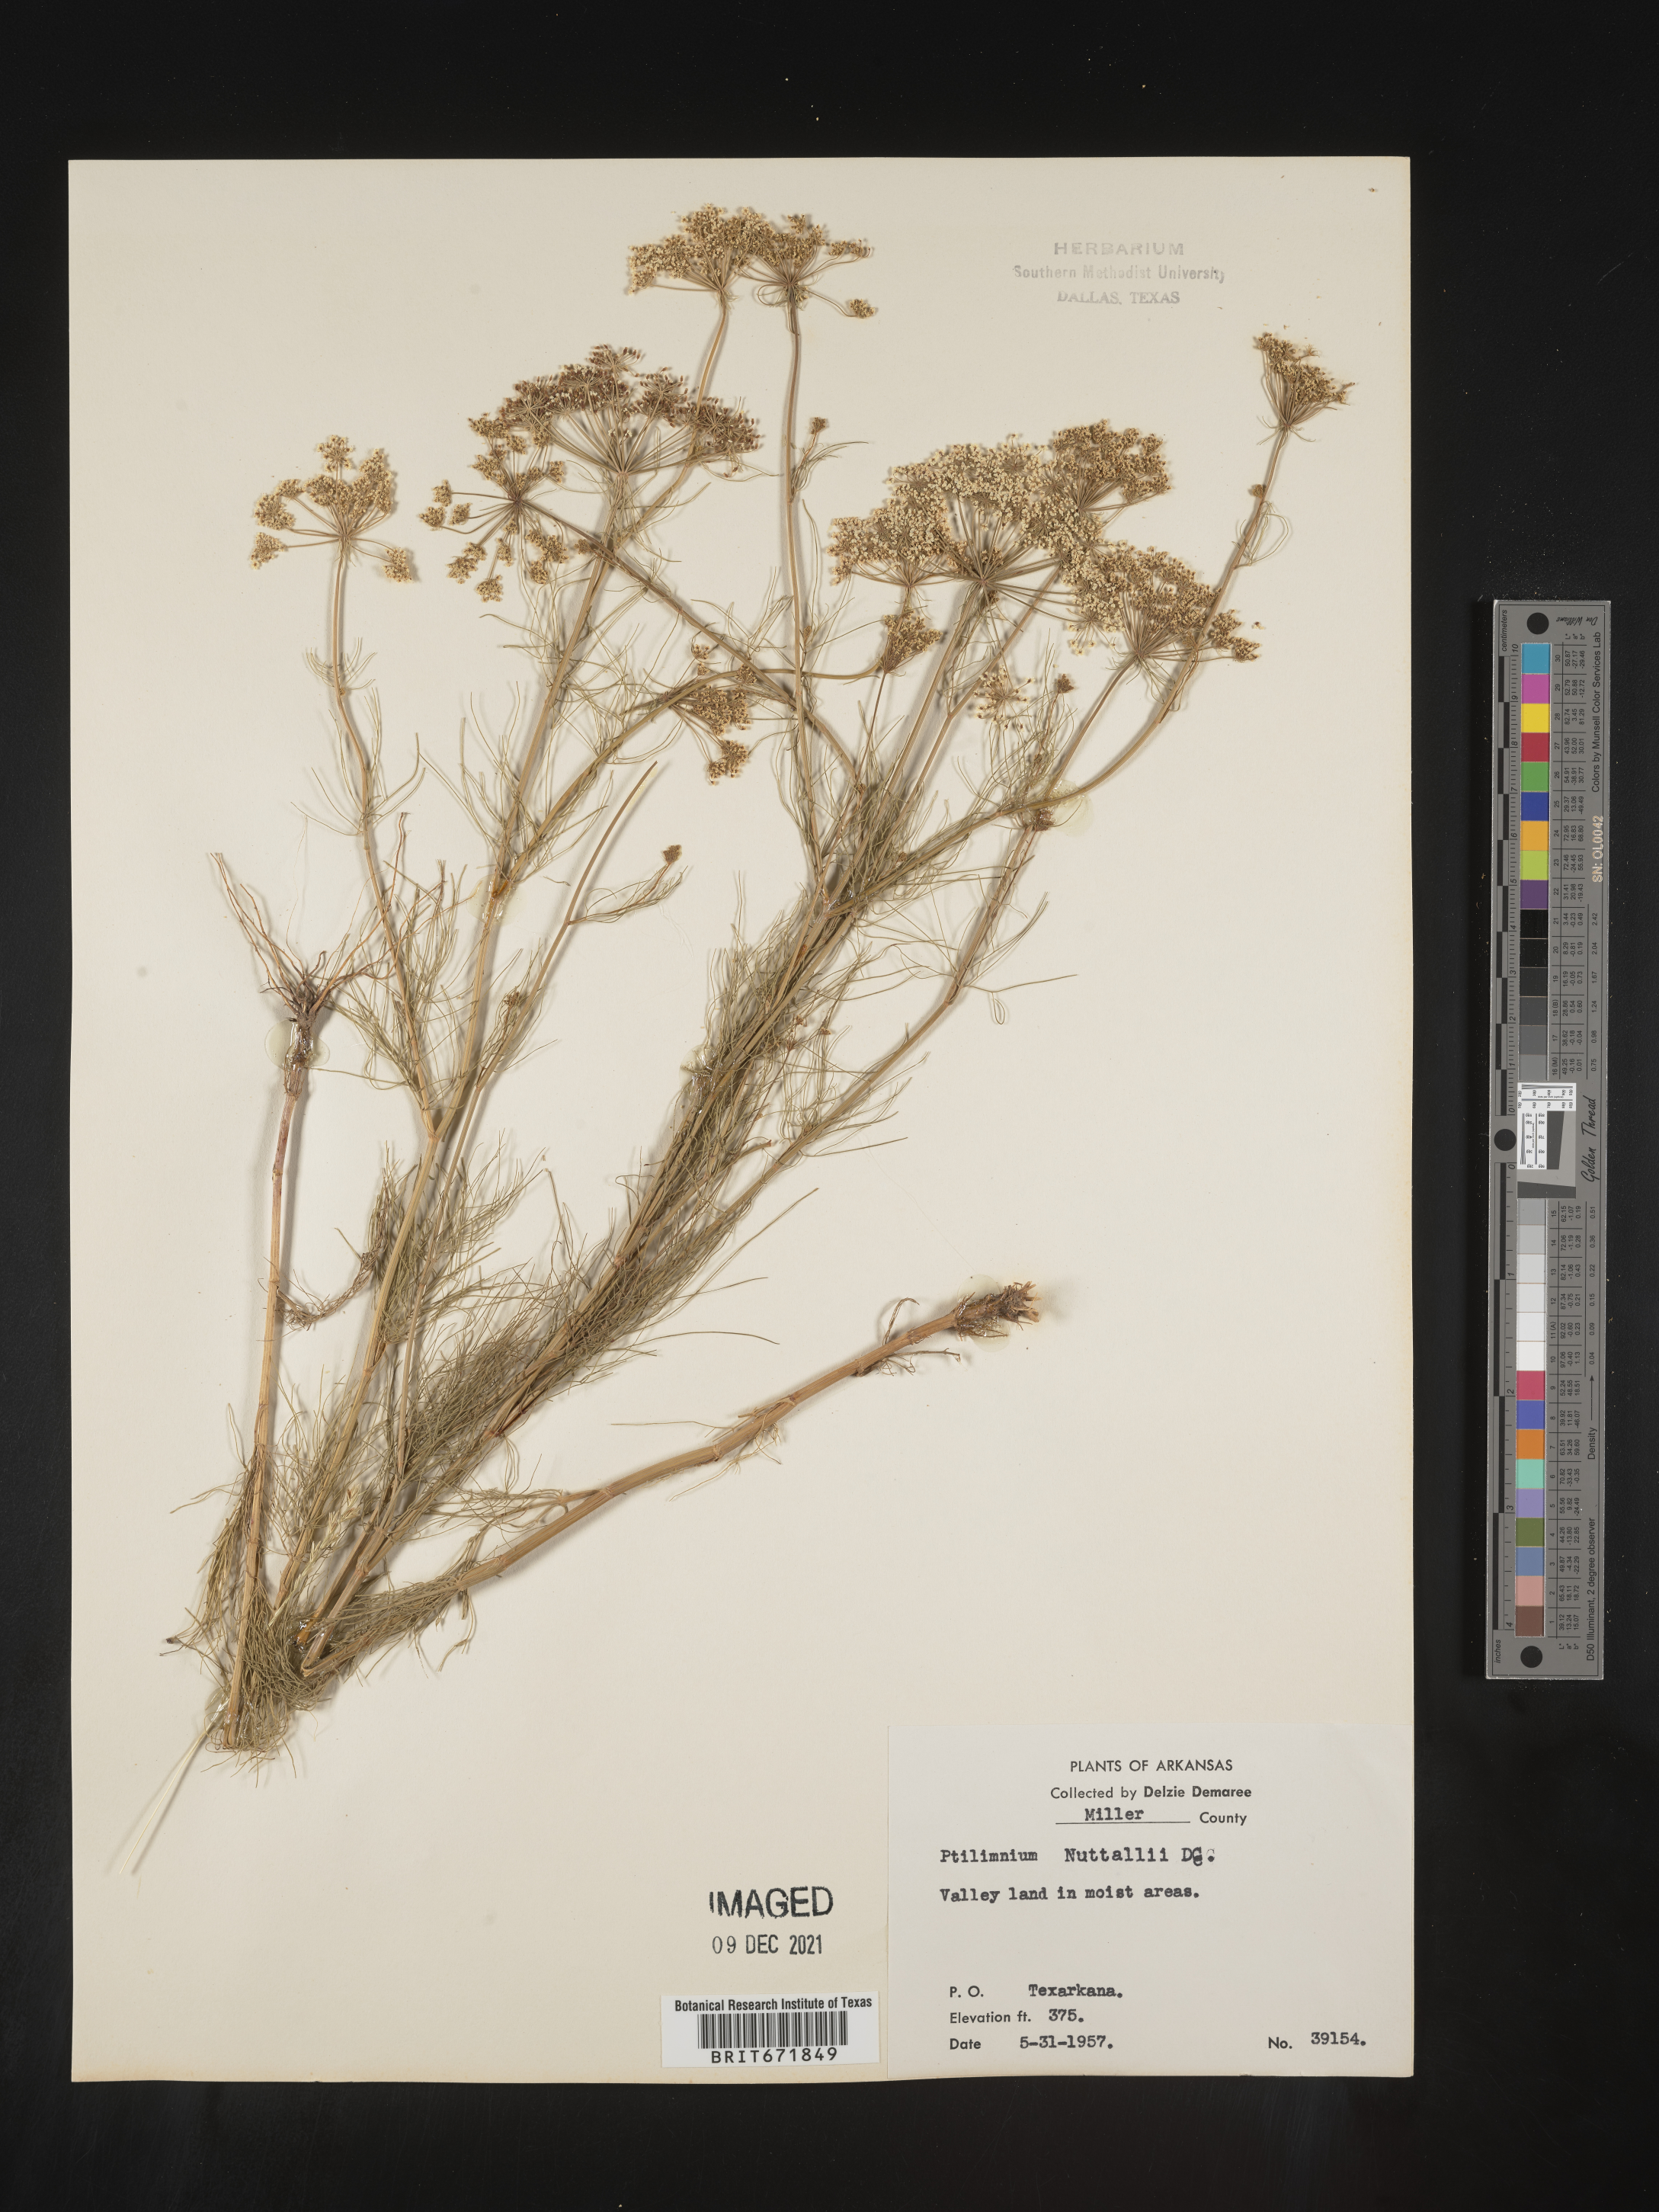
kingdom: Plantae
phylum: Tracheophyta
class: Magnoliopsida
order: Apiales
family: Apiaceae
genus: Ptilimnium
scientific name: Ptilimnium nuttallii
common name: Ozark bishop's-weed
